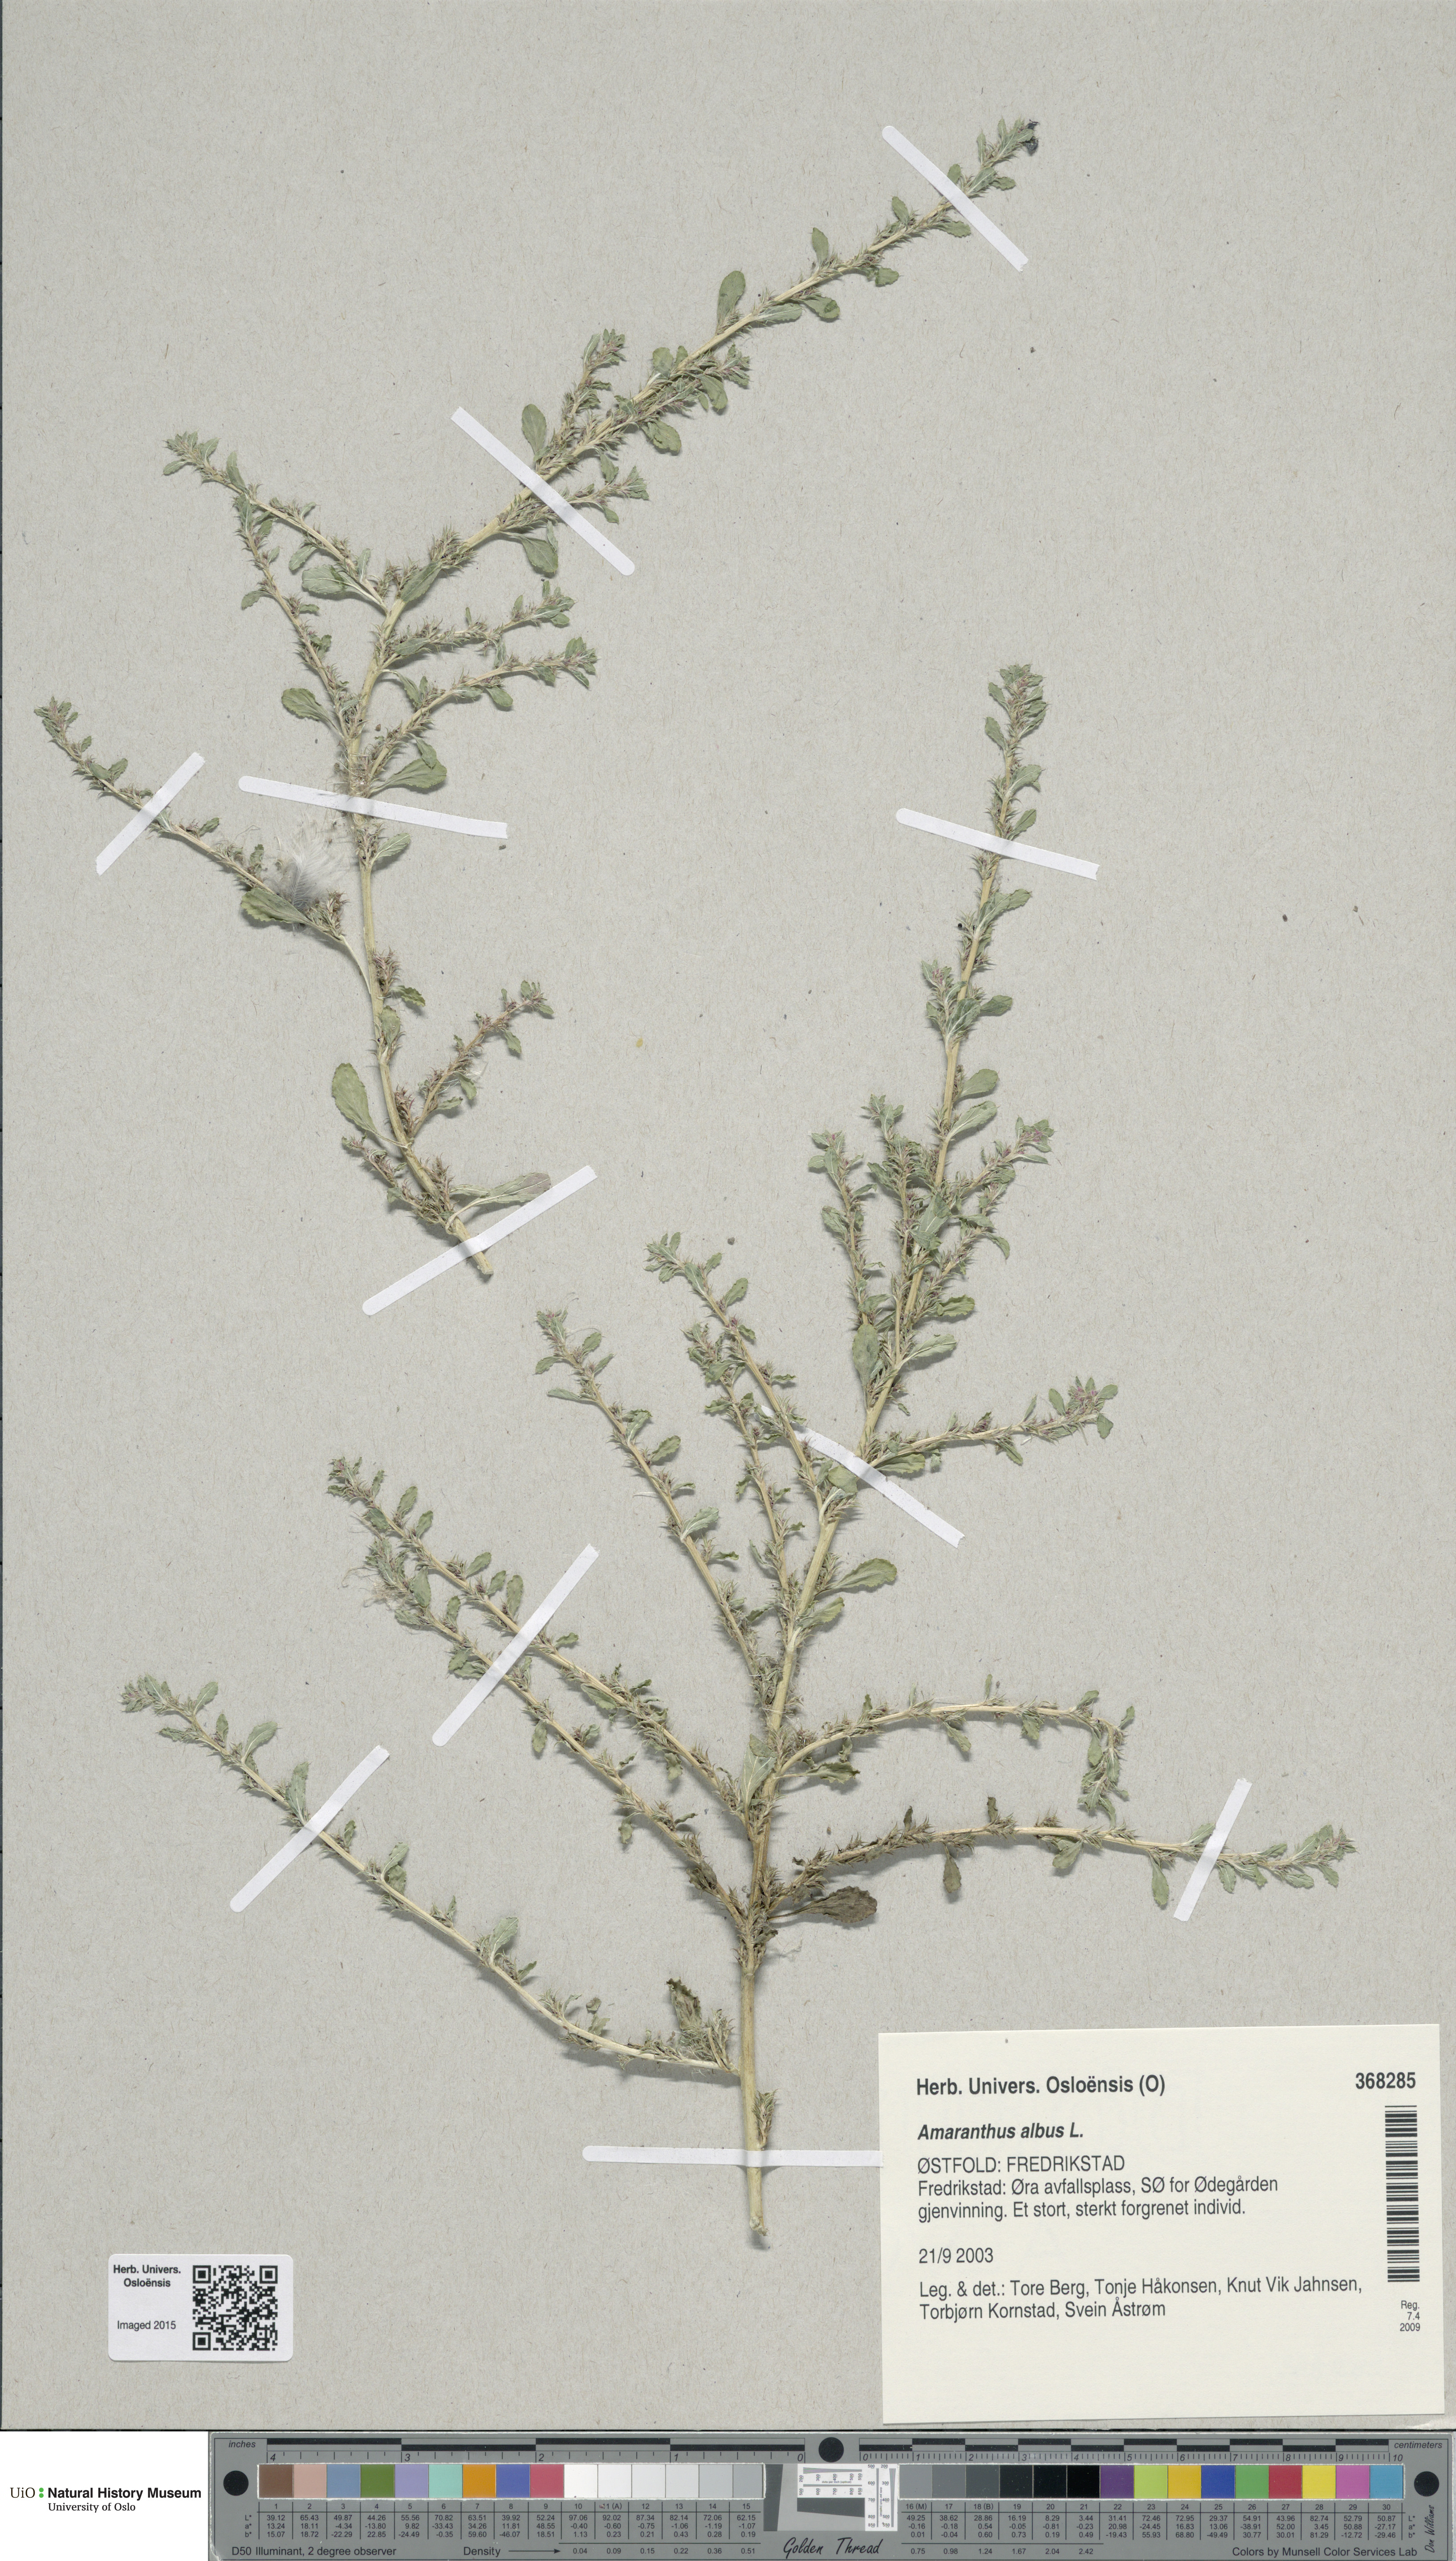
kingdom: Plantae
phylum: Tracheophyta
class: Magnoliopsida
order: Caryophyllales
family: Amaranthaceae
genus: Amaranthus
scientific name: Amaranthus albus
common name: White pigweed
